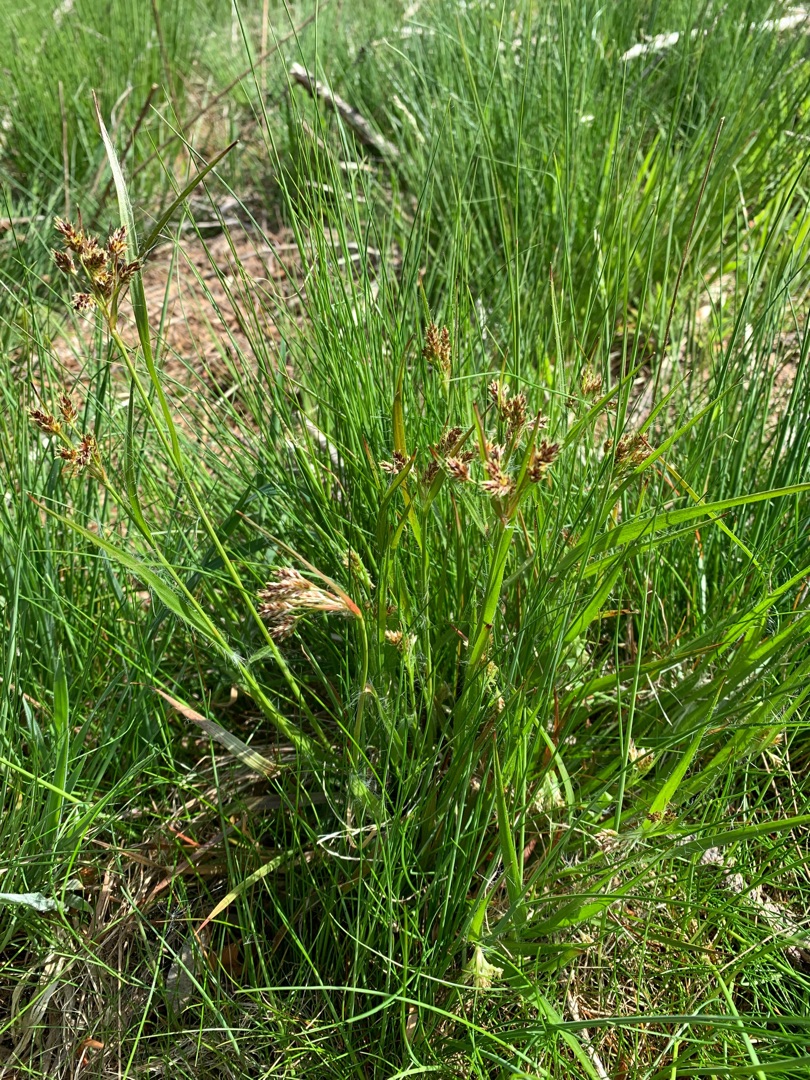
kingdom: Plantae
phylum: Tracheophyta
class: Liliopsida
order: Poales
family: Juncaceae
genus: Luzula
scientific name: Luzula multiflora
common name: Mangeblomstret frytle
